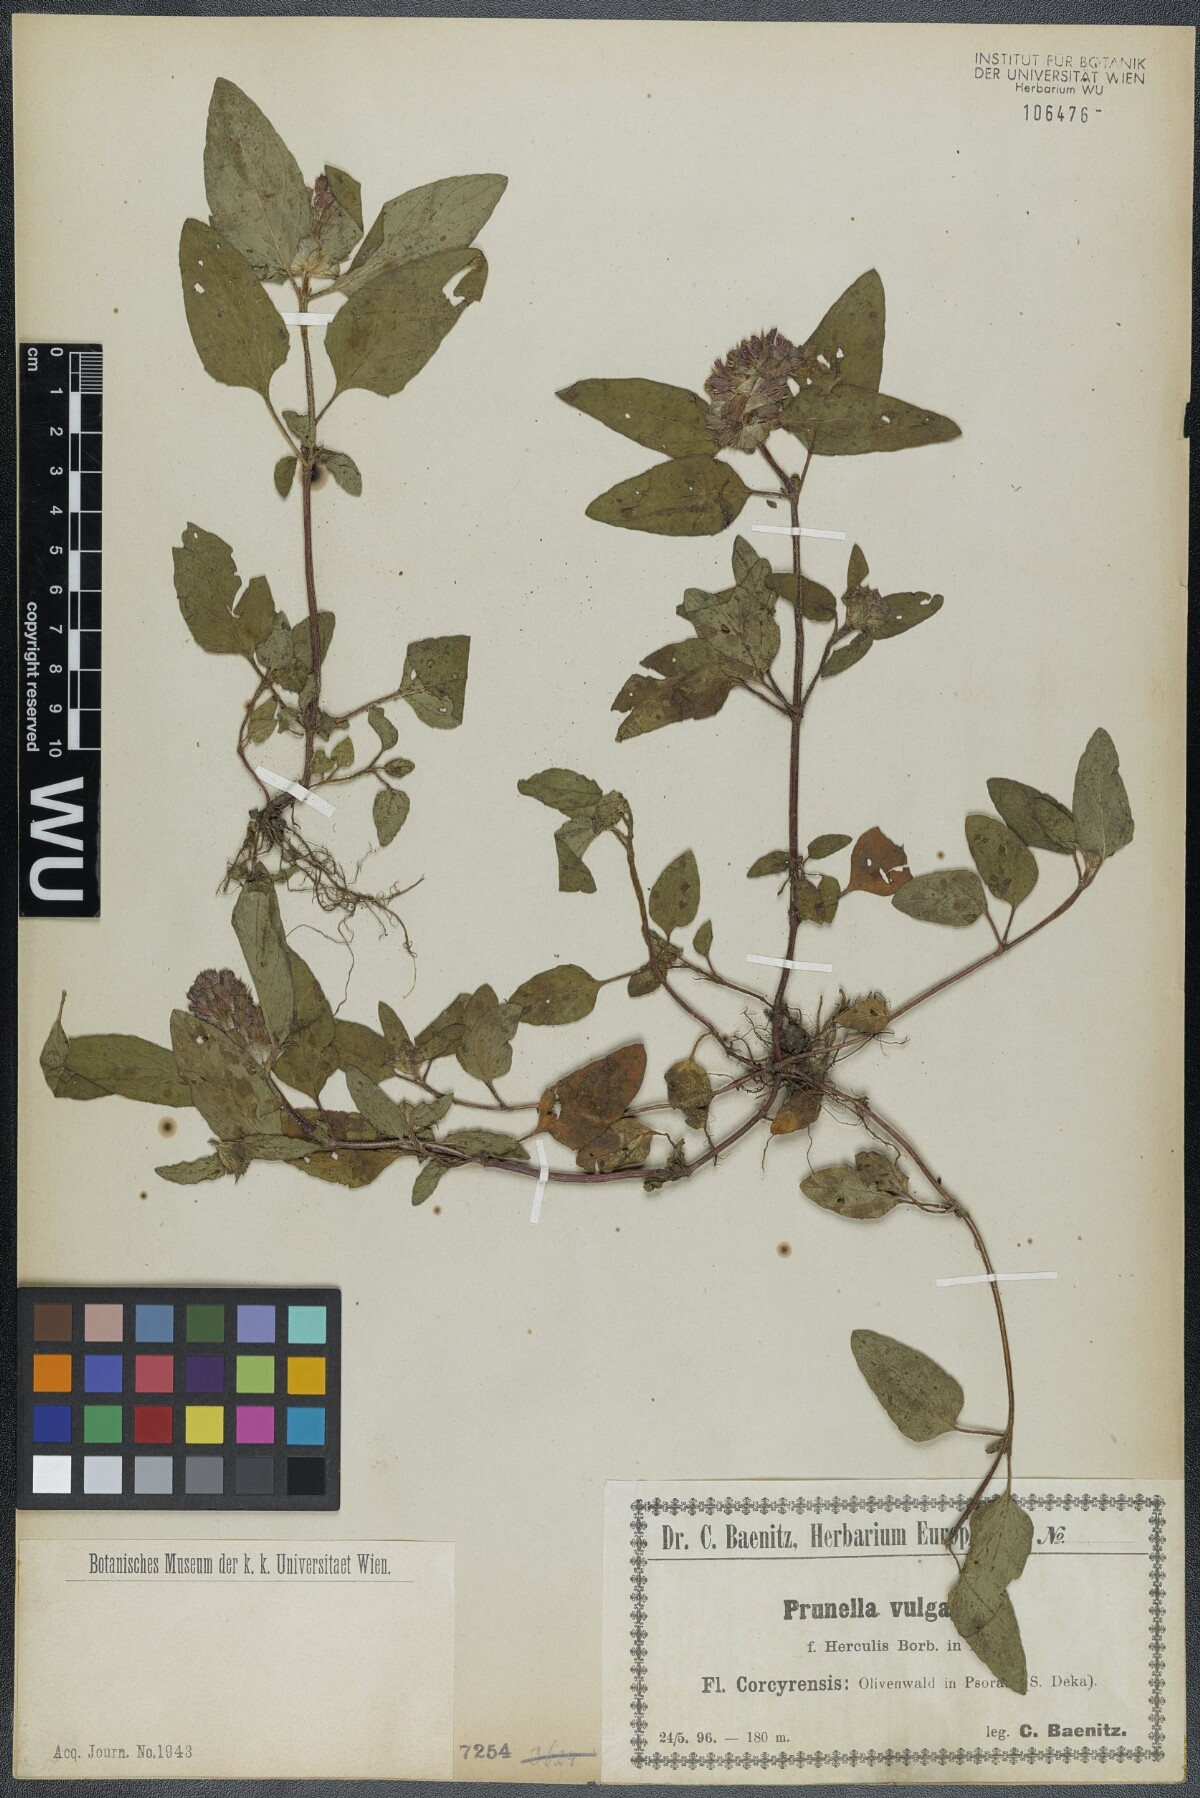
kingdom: Plantae
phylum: Tracheophyta
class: Magnoliopsida
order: Lamiales
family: Lamiaceae
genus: Prunella
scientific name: Prunella vulgaris
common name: Heal-all
